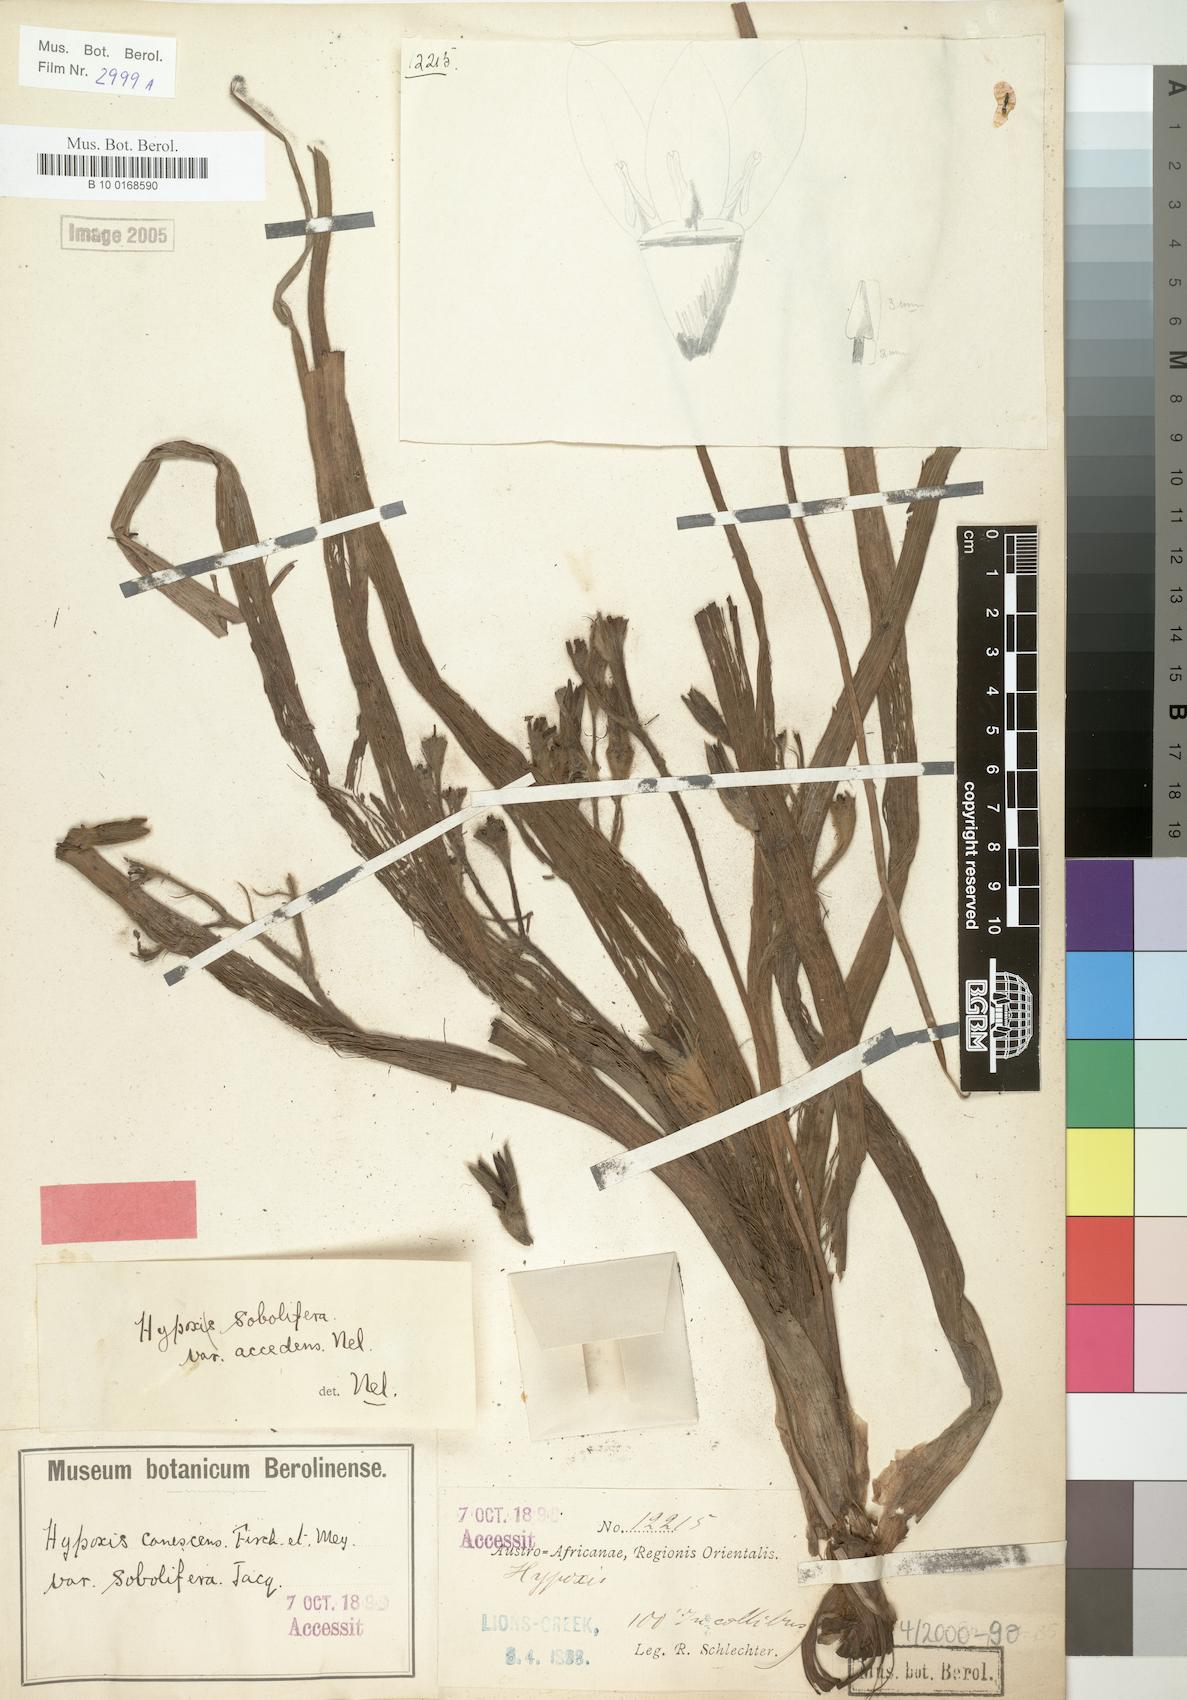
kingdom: Plantae
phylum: Tracheophyta
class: Liliopsida
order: Asparagales
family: Hypoxidaceae
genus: Hypoxis
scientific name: Hypoxis sobolifera
